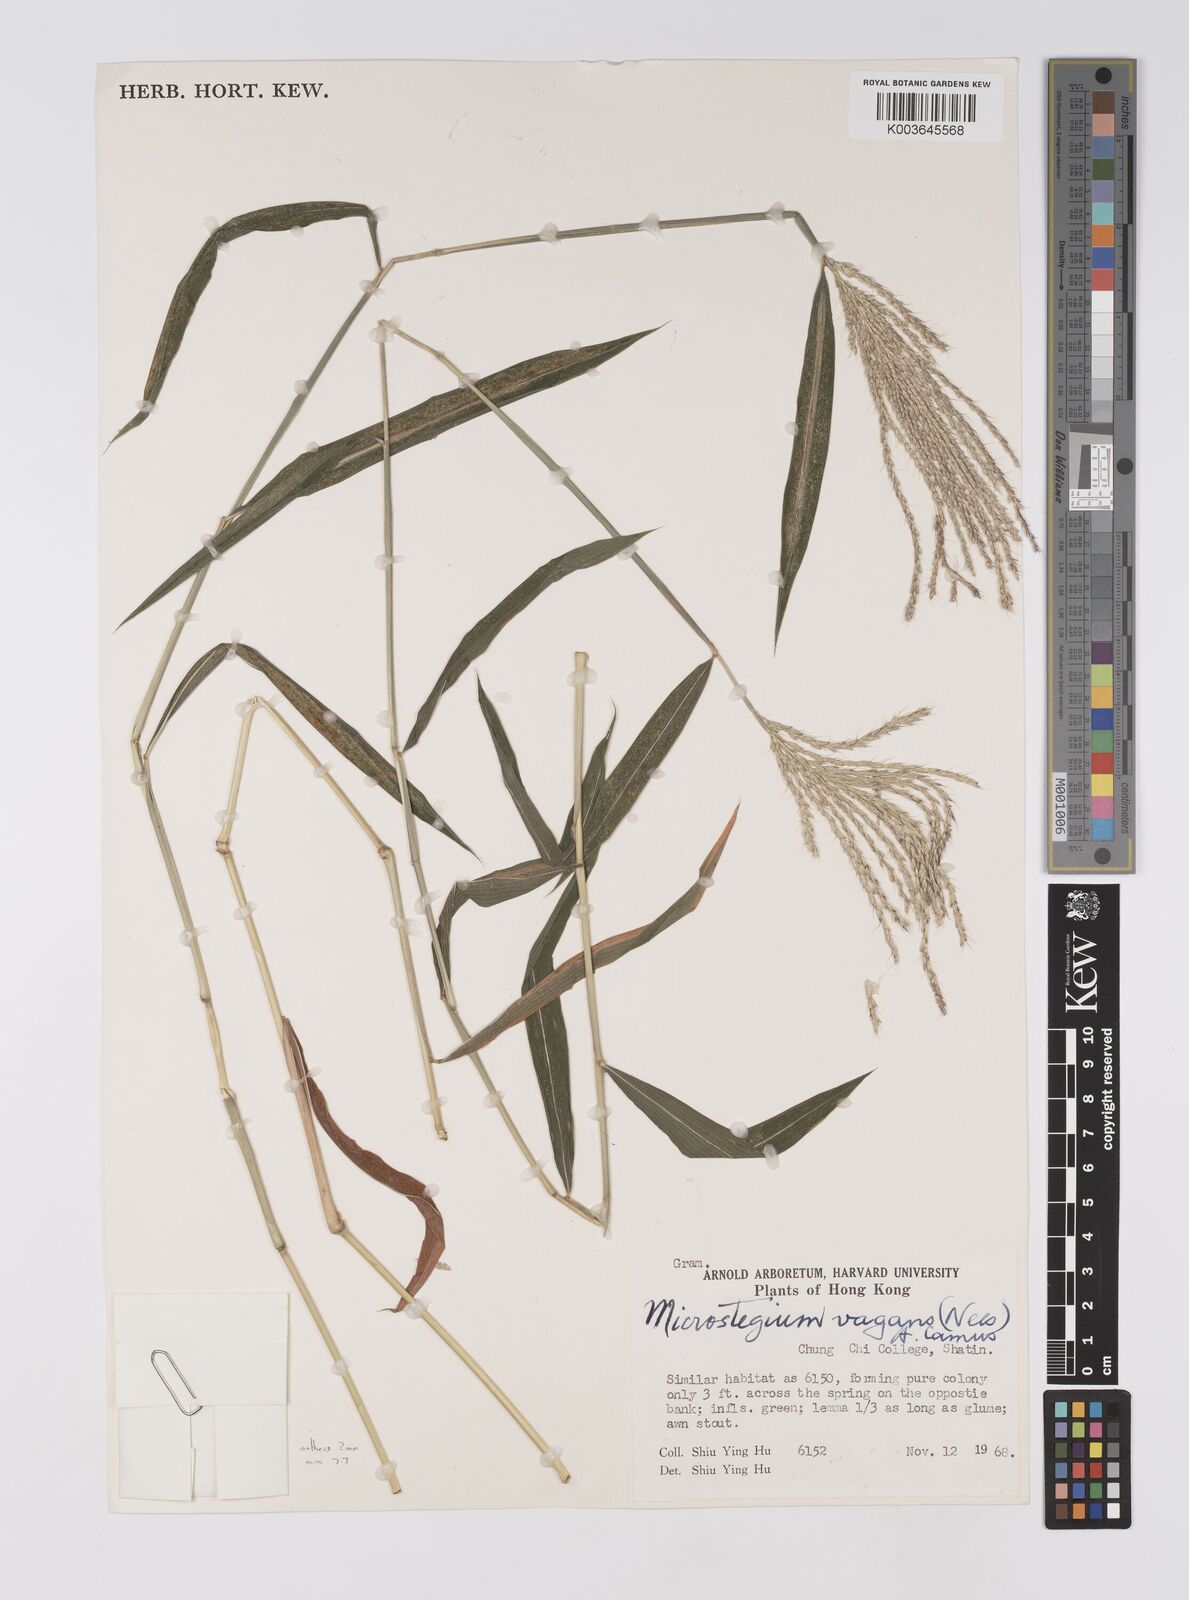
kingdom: Plantae
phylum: Tracheophyta
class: Liliopsida
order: Poales
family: Poaceae
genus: Microstegium
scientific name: Microstegium fasciculatum
